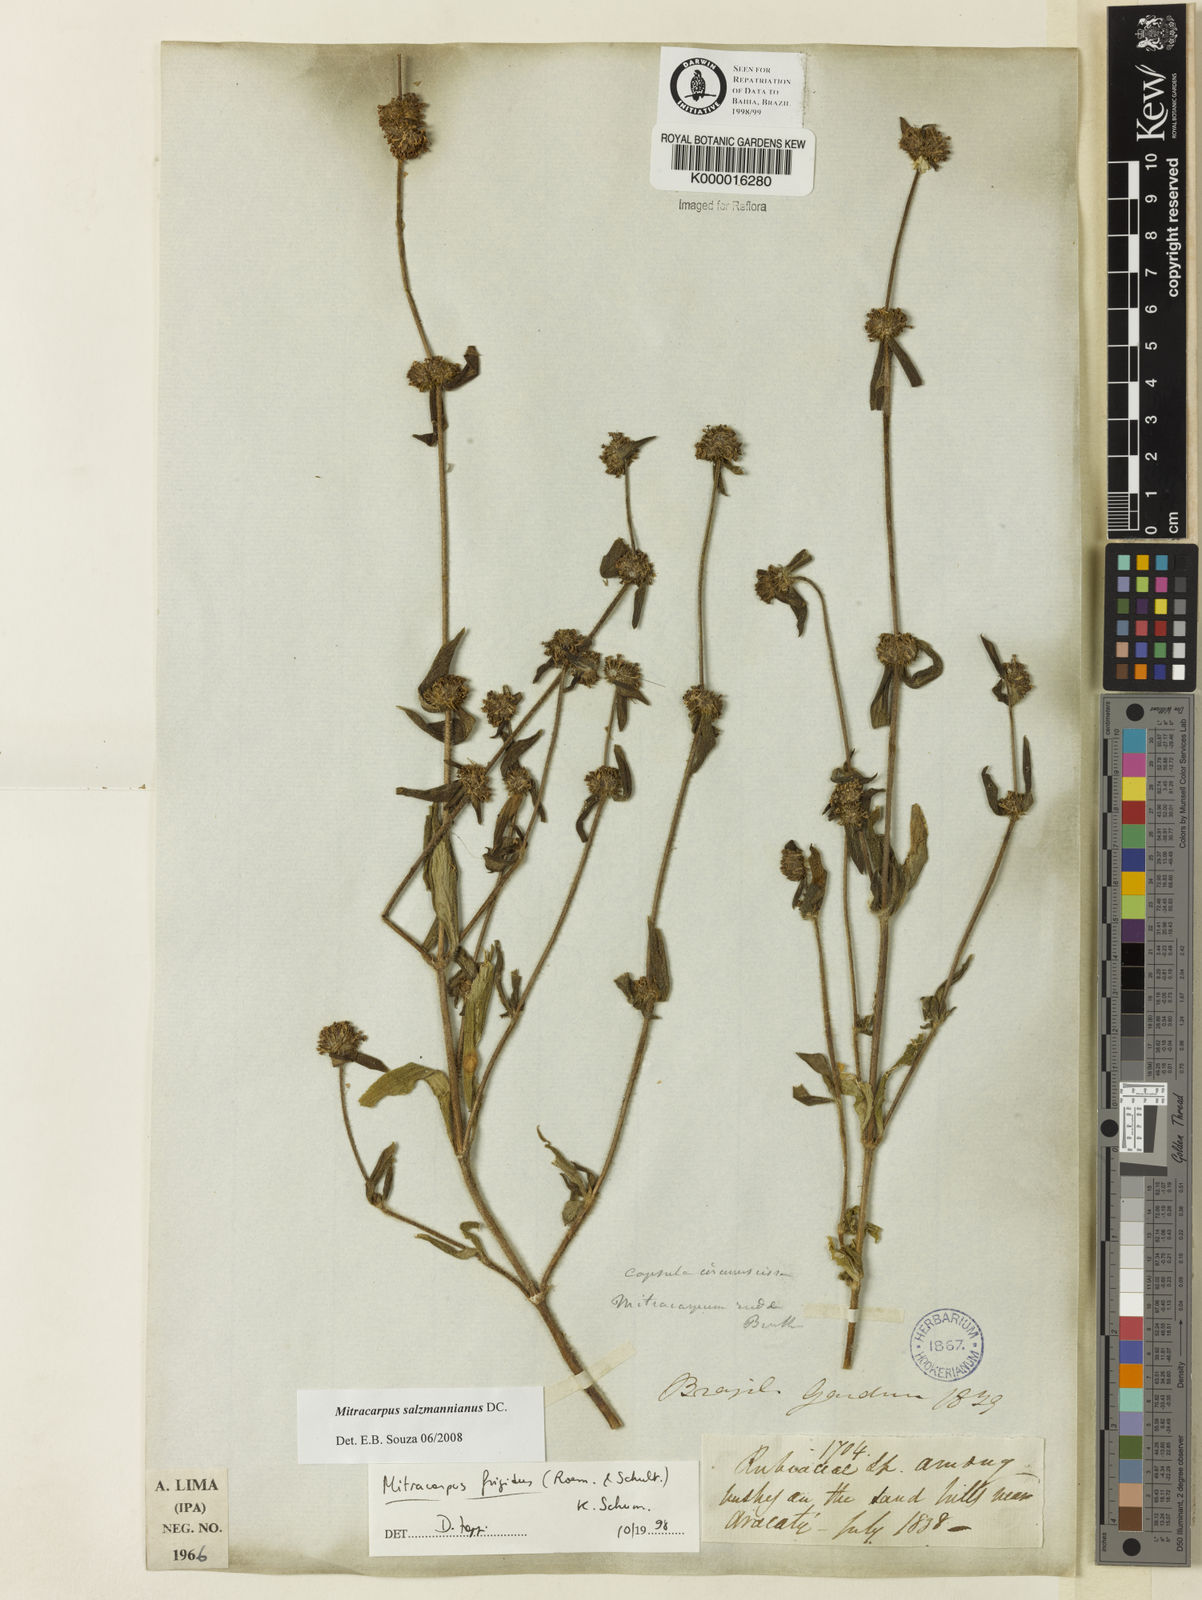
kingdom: Plantae
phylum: Tracheophyta
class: Magnoliopsida
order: Gentianales
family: Rubiaceae
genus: Mitracarpus
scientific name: Mitracarpus salzmannianus
